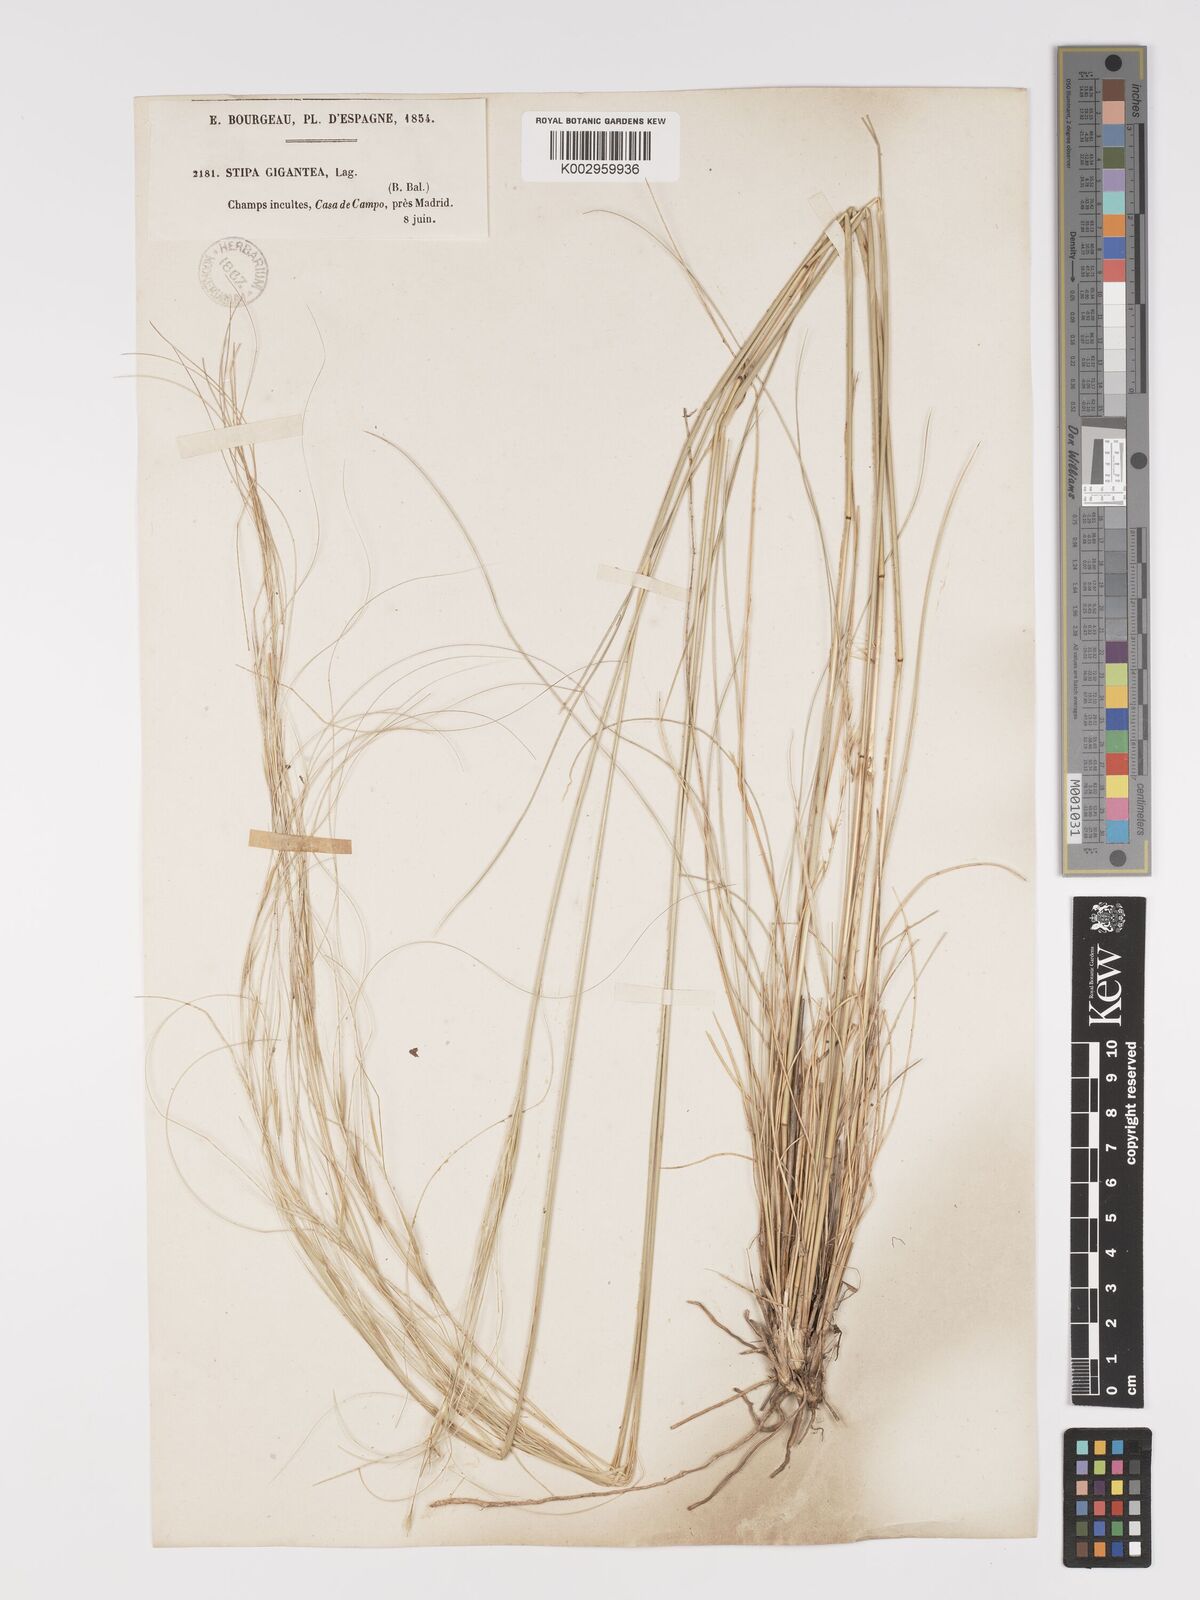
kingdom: Plantae
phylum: Tracheophyta
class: Liliopsida
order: Poales
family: Poaceae
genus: Stipa
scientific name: Stipa
